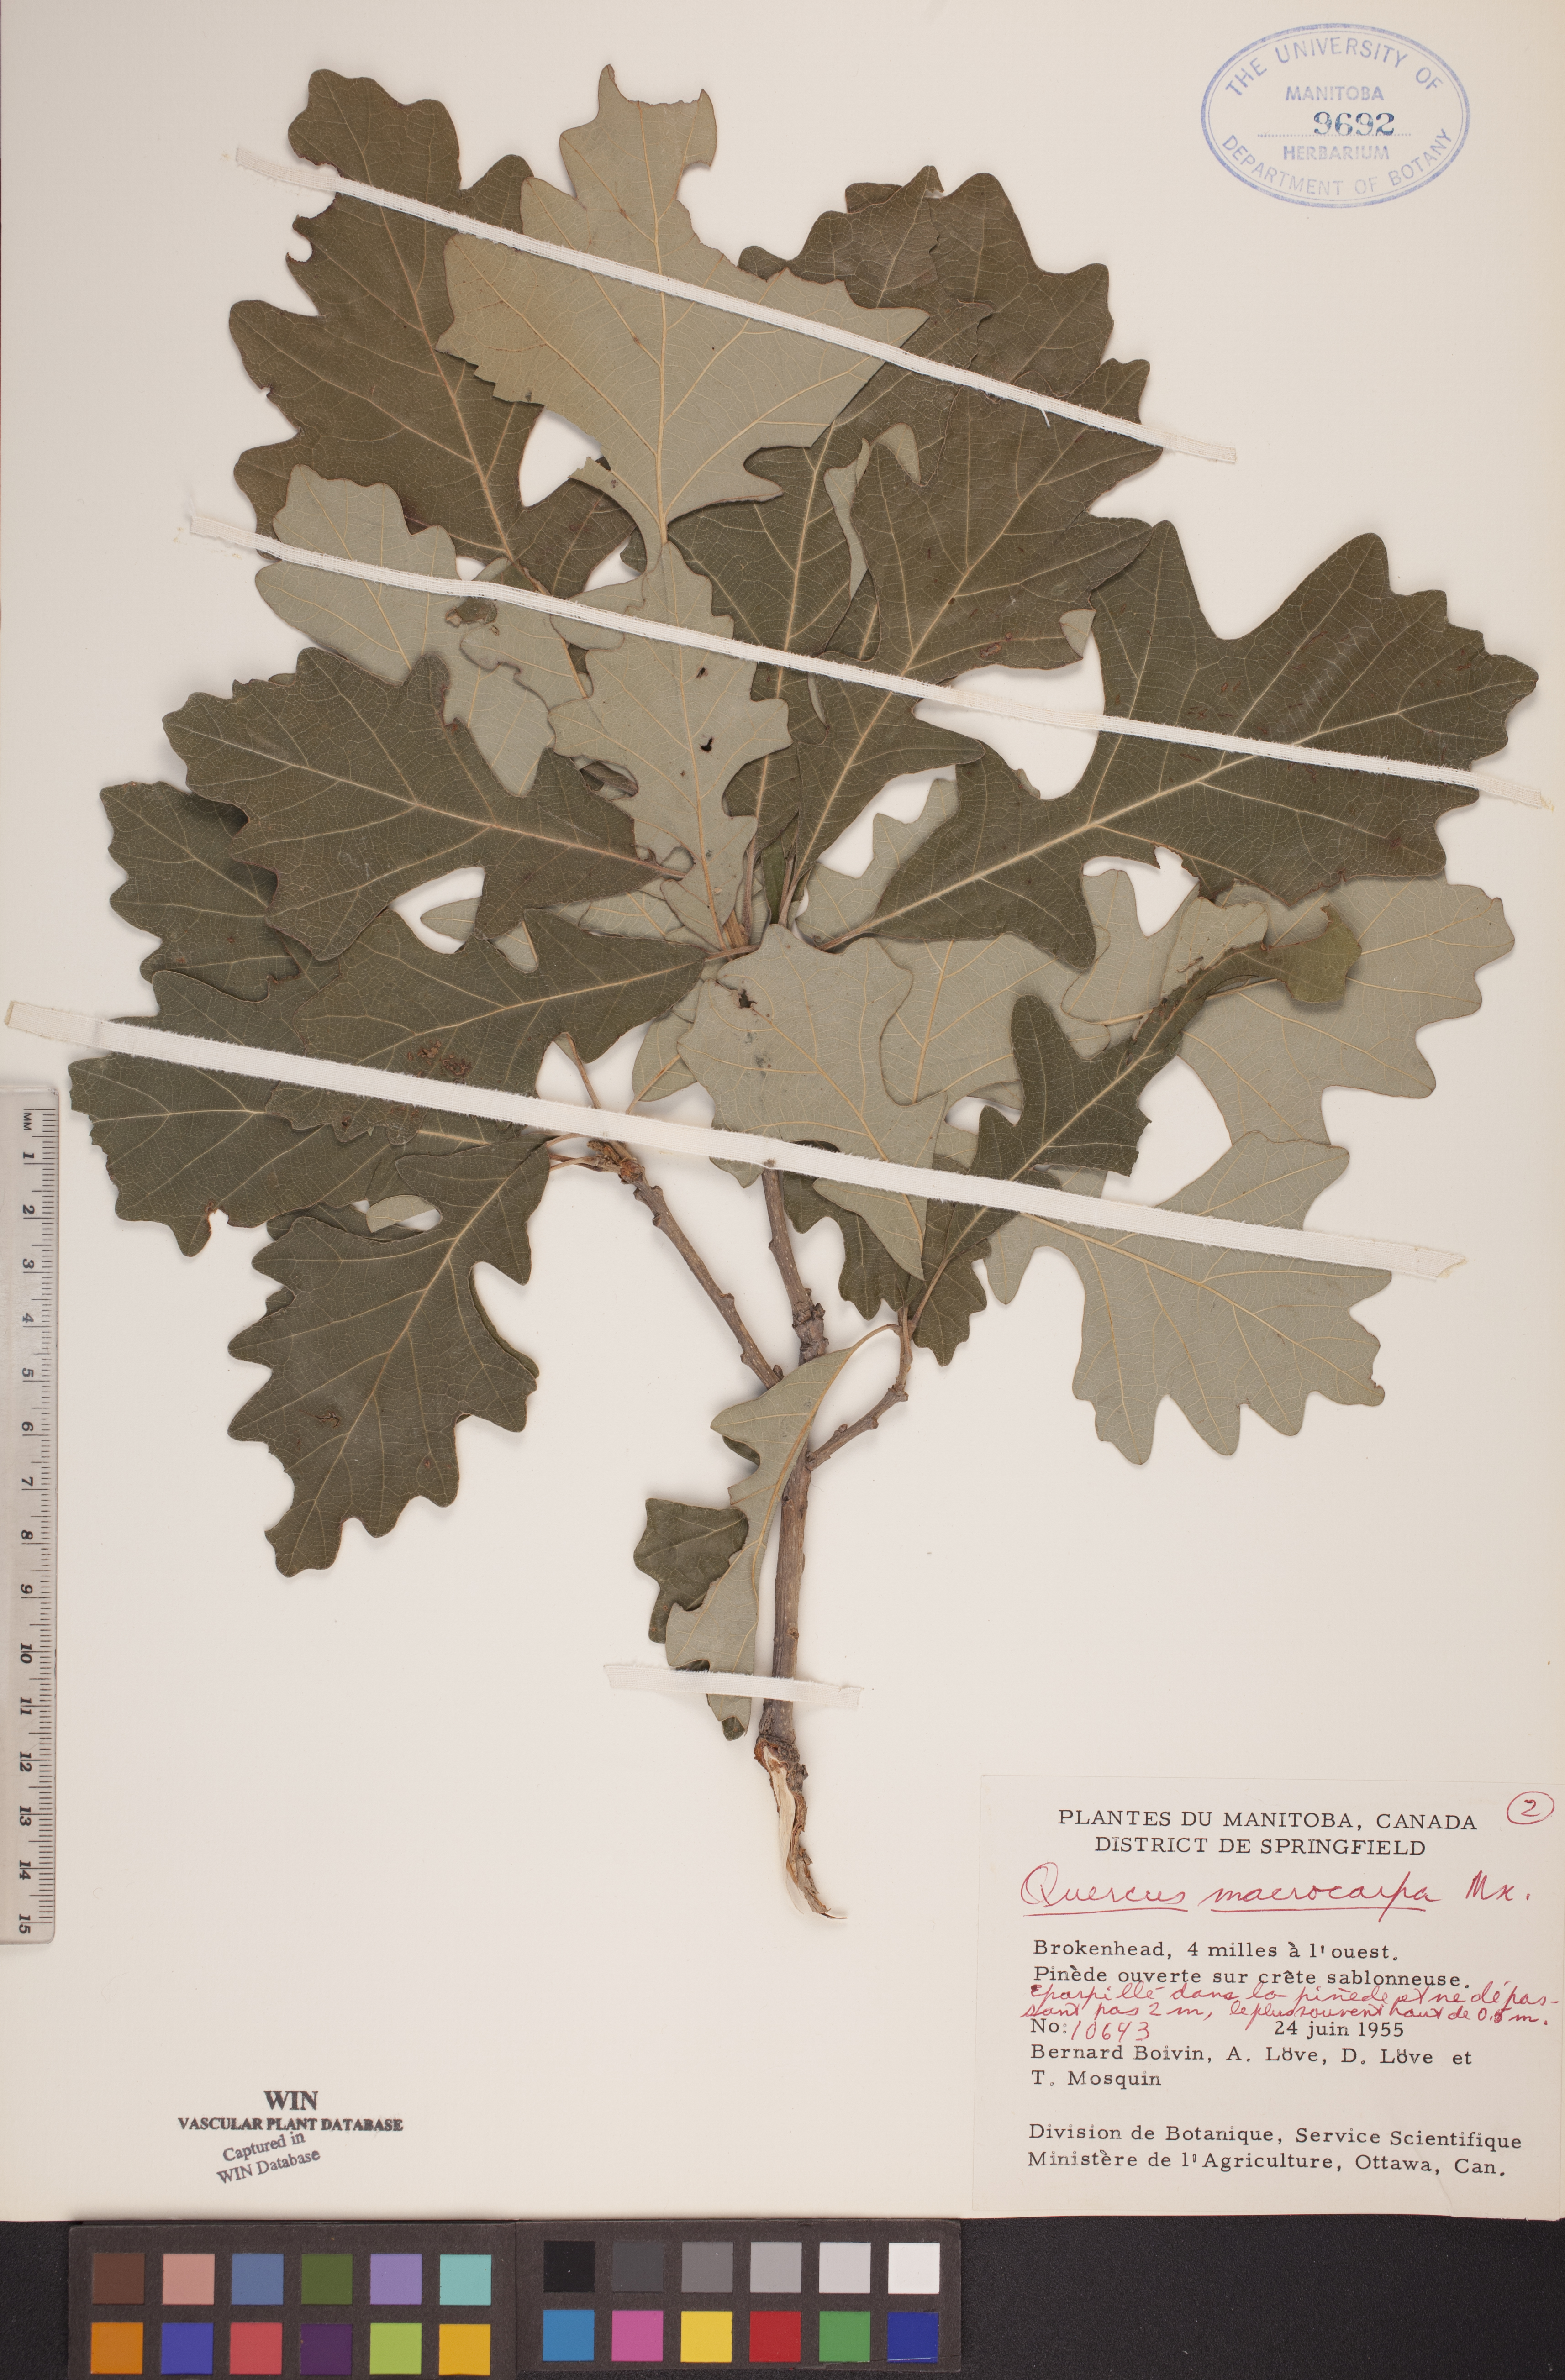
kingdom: Plantae
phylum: Tracheophyta
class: Magnoliopsida
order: Fagales
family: Fagaceae
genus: Quercus
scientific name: Quercus macrocarpa
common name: Bur oak
